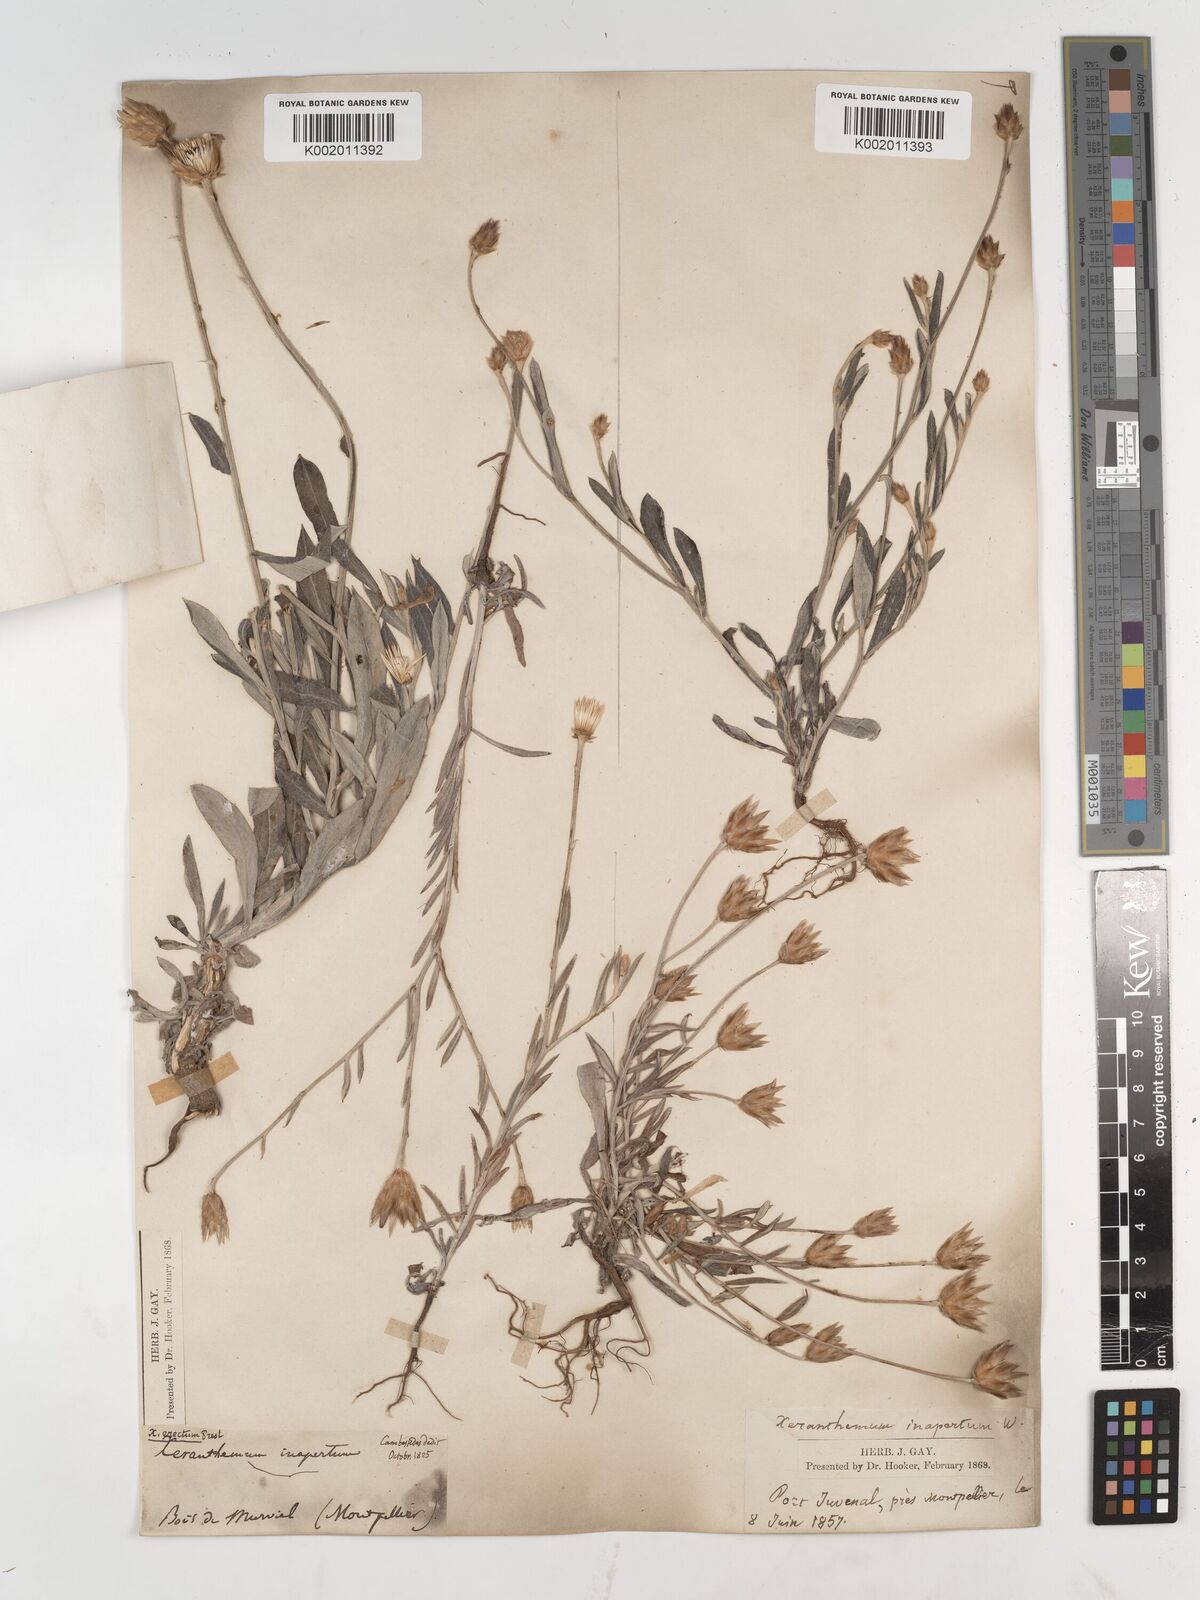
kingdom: Plantae
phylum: Tracheophyta
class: Magnoliopsida
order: Asterales
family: Asteraceae
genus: Xeranthemum
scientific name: Xeranthemum inapertum
